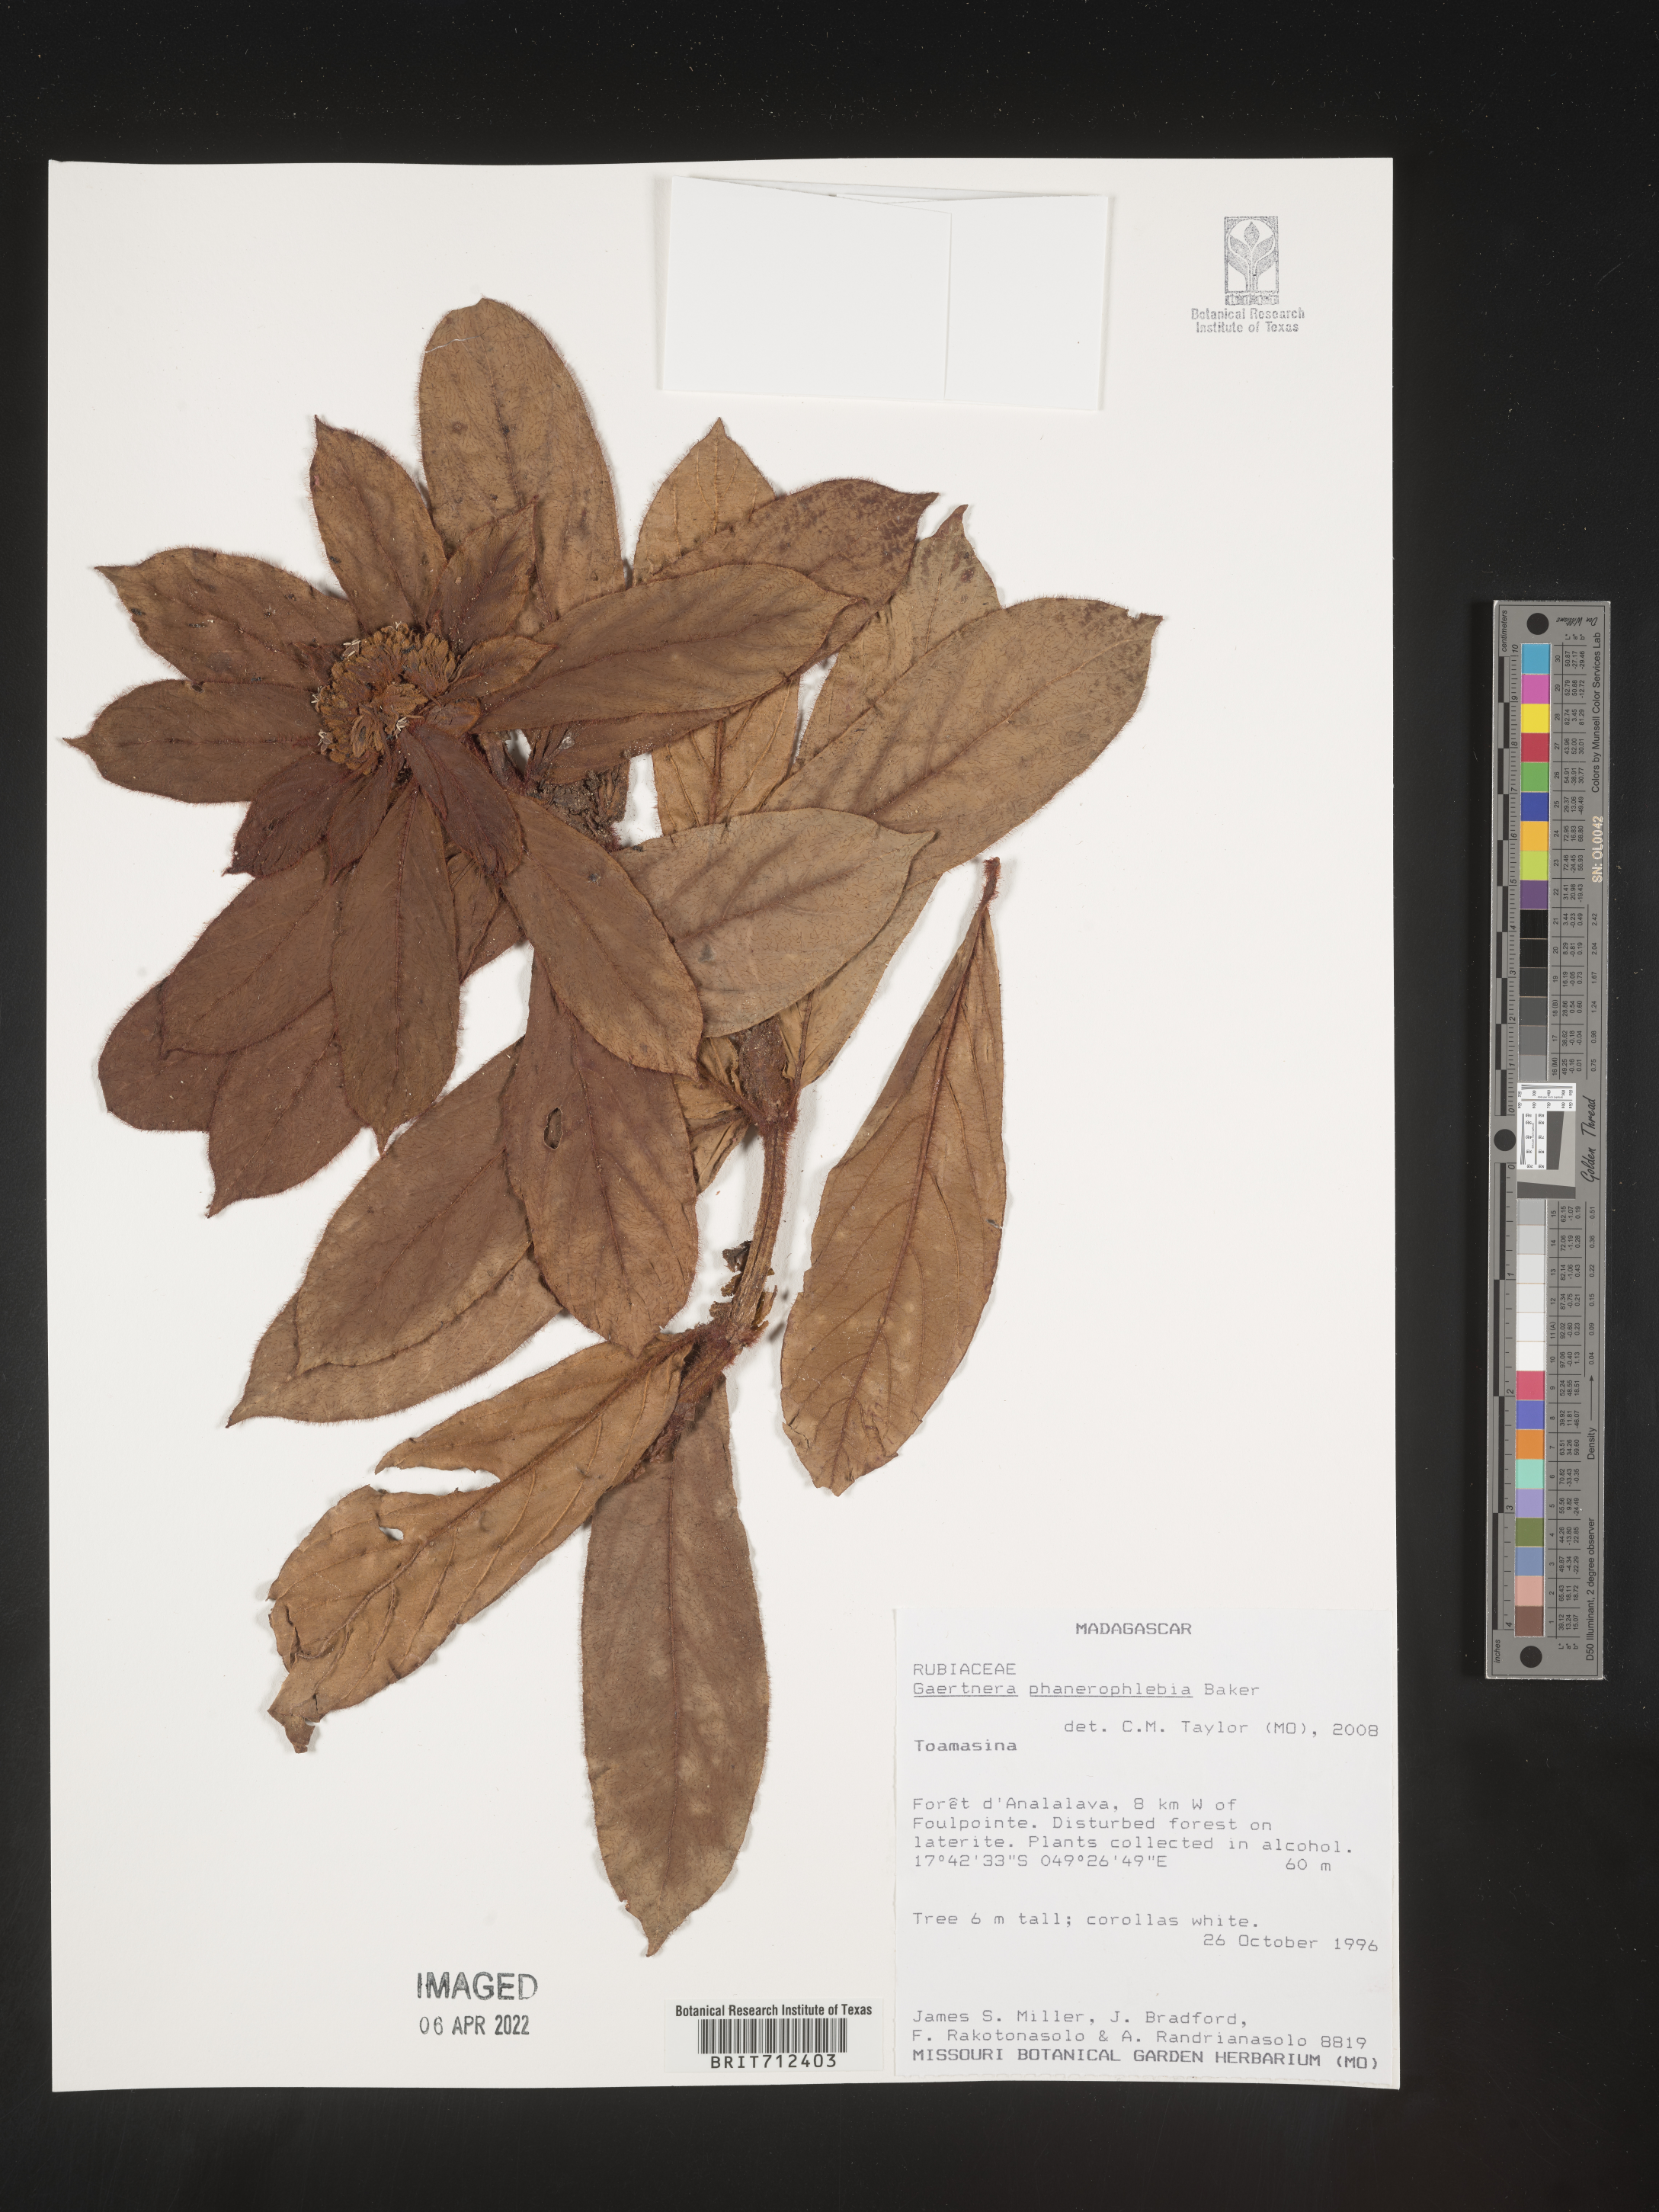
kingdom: Plantae
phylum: Tracheophyta
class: Magnoliopsida
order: Gentianales
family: Rubiaceae
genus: Gaertnera
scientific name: Gaertnera
